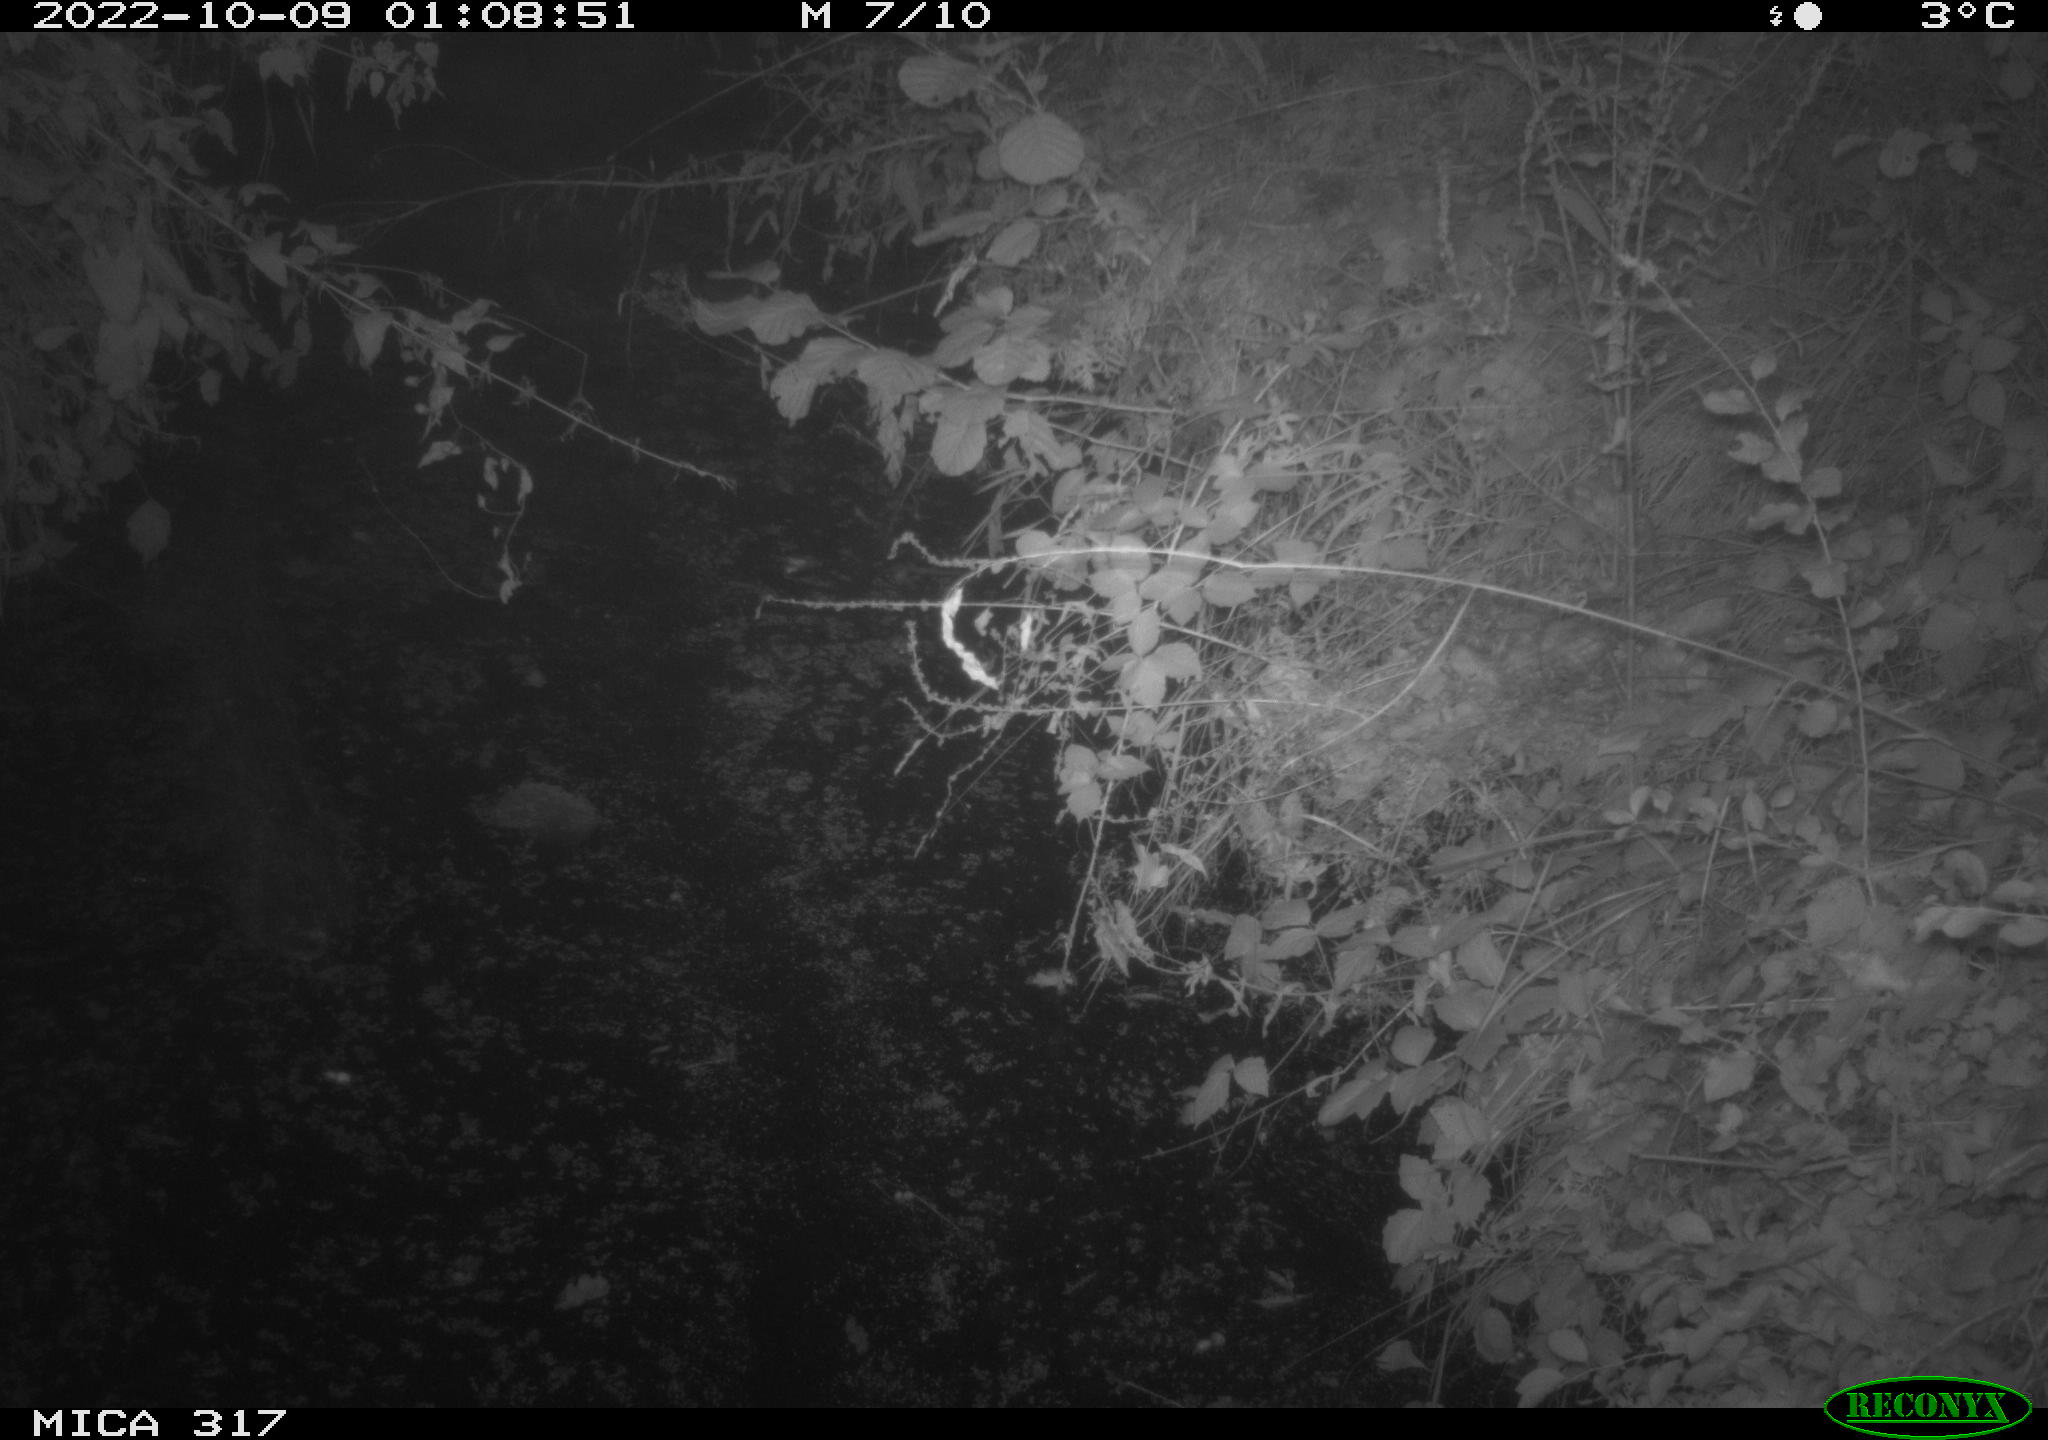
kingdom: Animalia
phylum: Chordata
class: Aves
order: Anseriformes
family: Anatidae
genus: Anas
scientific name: Anas
